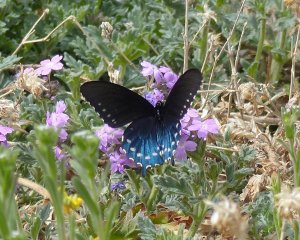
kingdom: Animalia
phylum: Arthropoda
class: Insecta
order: Lepidoptera
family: Papilionidae
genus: Battus
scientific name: Battus philenor
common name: Pipevine Swallowtail
